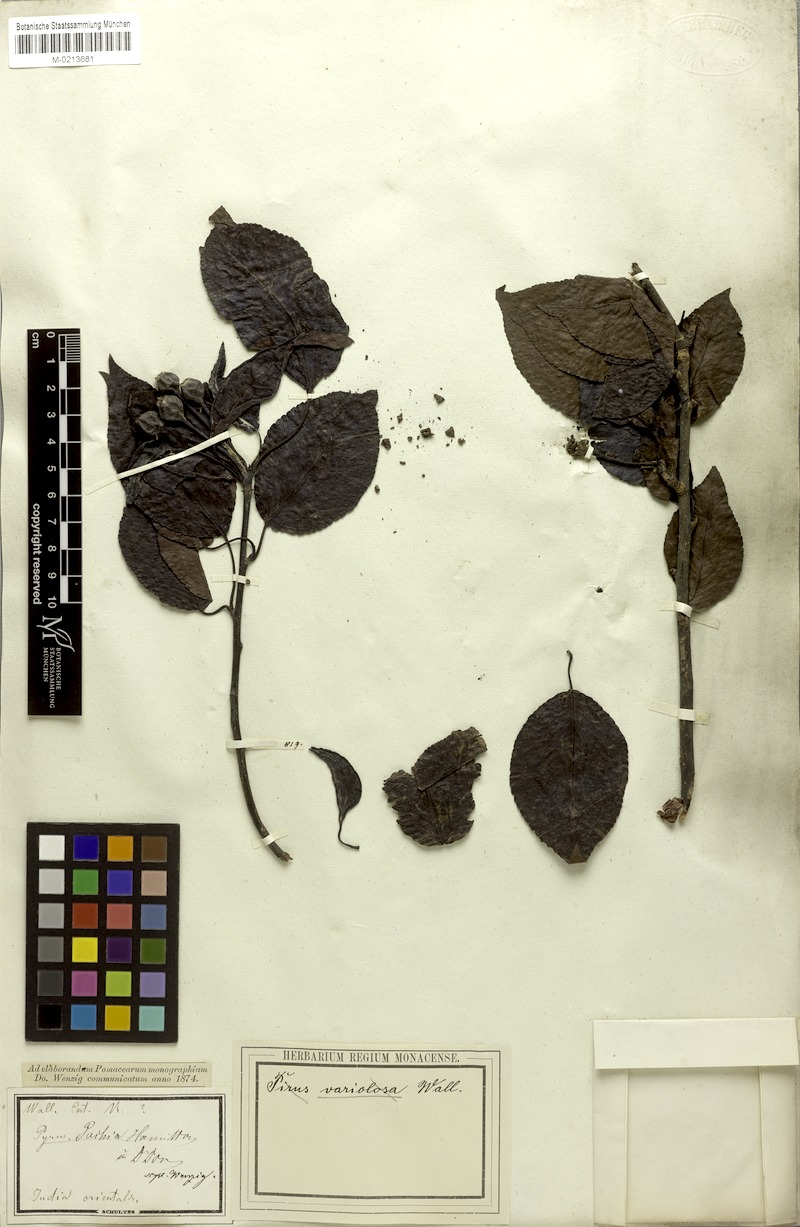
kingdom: Plantae
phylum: Tracheophyta
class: Magnoliopsida
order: Rosales
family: Rosaceae
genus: Pyrus
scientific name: Pyrus pashia
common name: Himalayan pear
